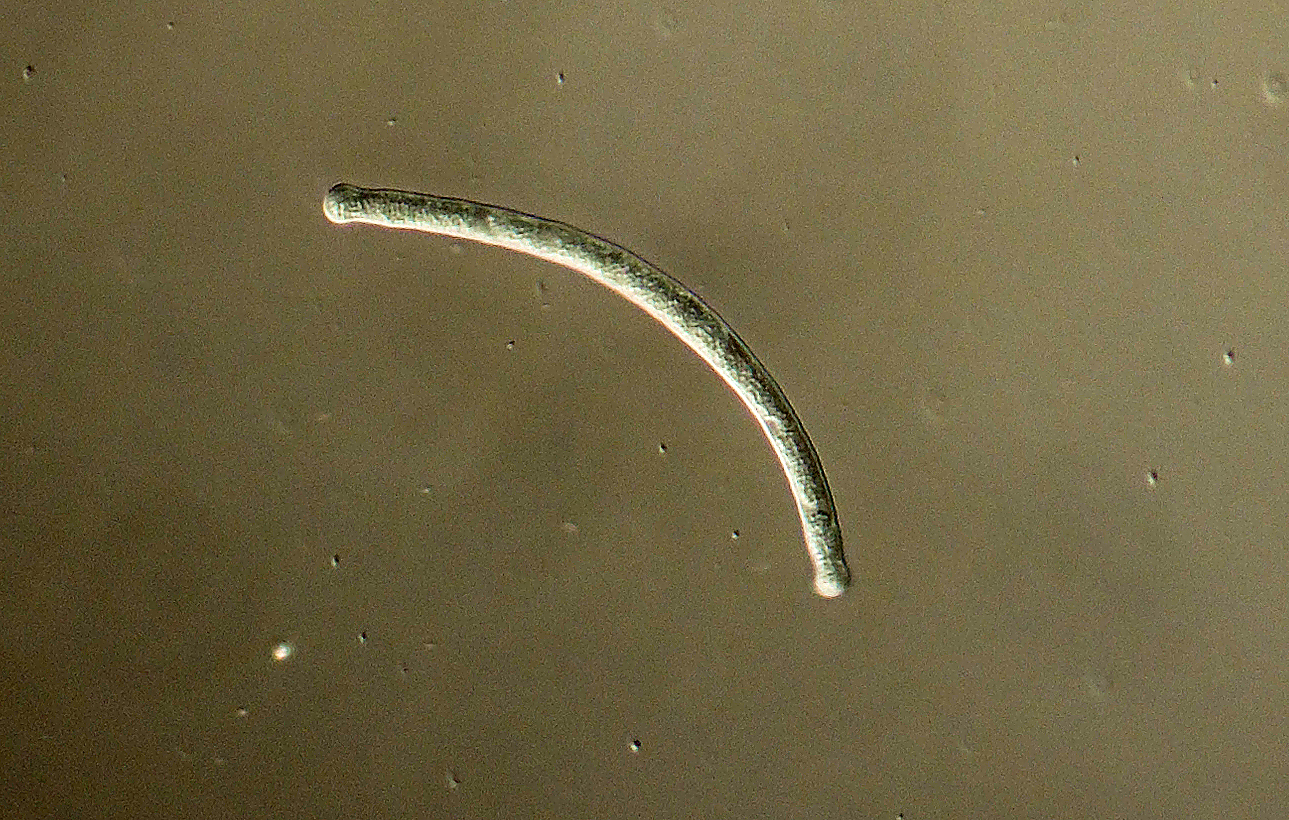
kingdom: Fungi
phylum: Ascomycota
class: Sordariomycetes
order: Diaporthales
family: Gnomoniaceae
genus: Cryptosporella
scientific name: Cryptosporella corylina
